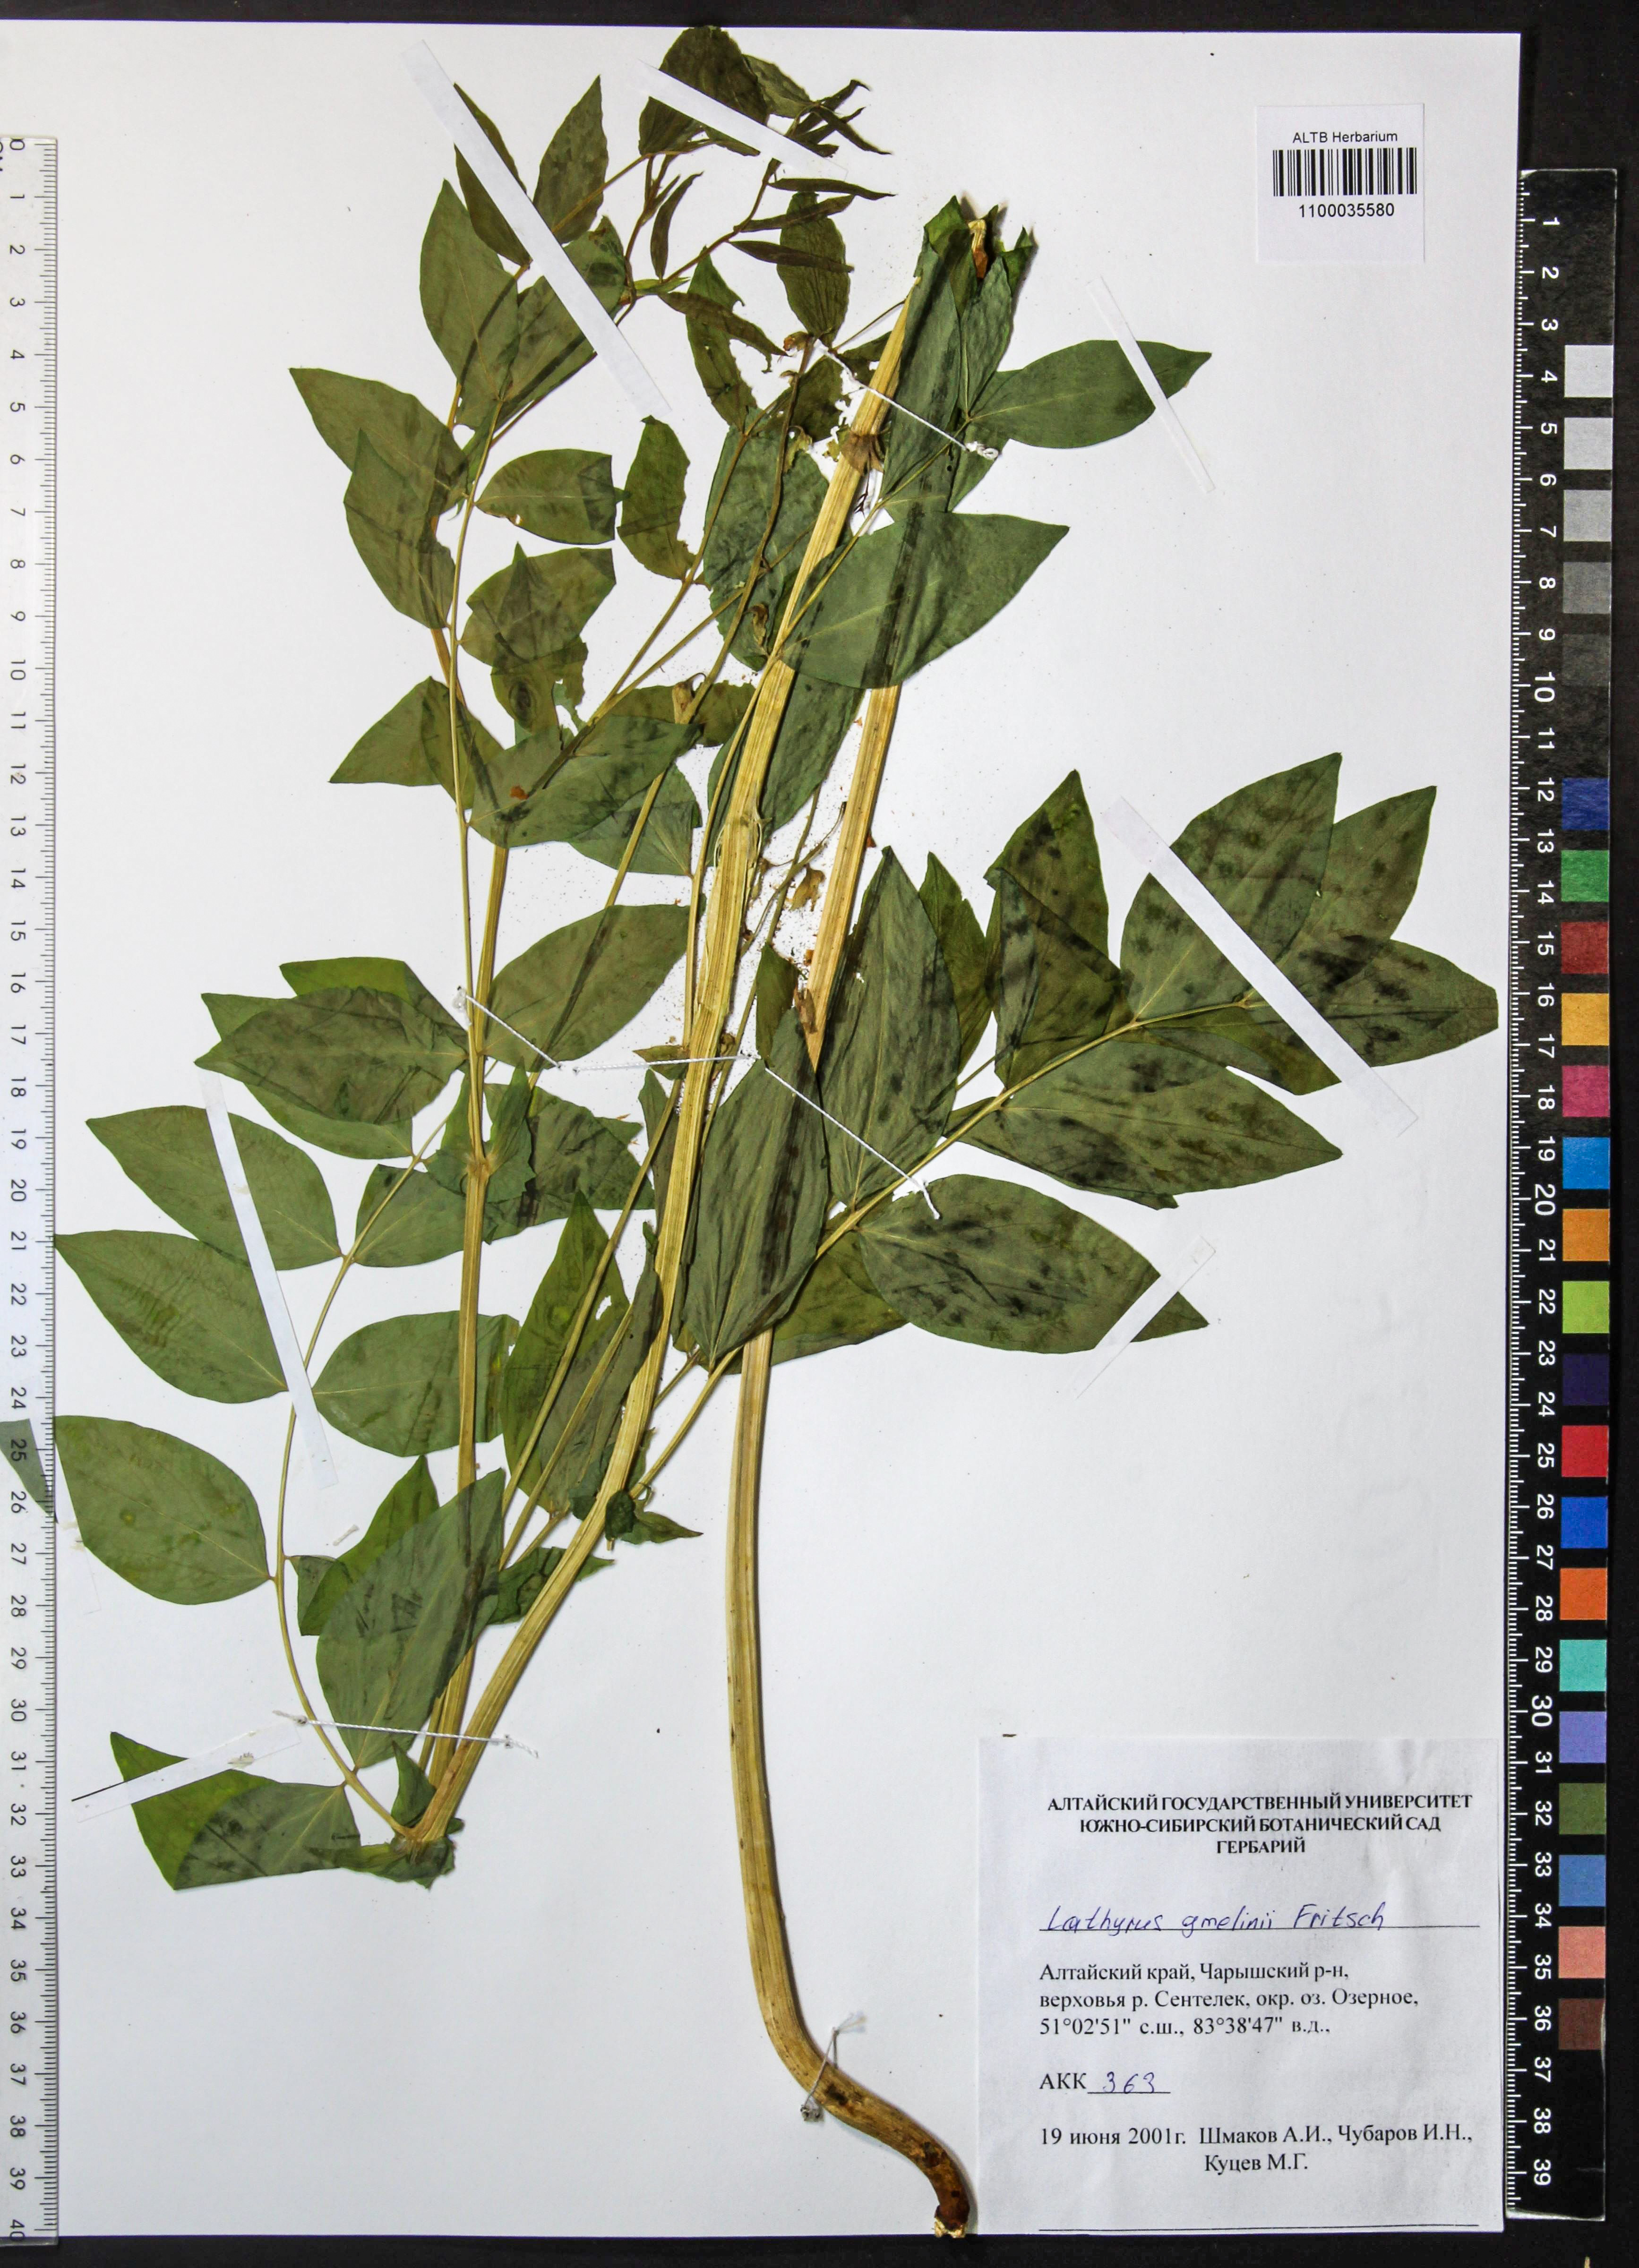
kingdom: Plantae
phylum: Tracheophyta
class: Magnoliopsida
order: Fabales
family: Fabaceae
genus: Lathyrus
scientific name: Lathyrus gmelinii
